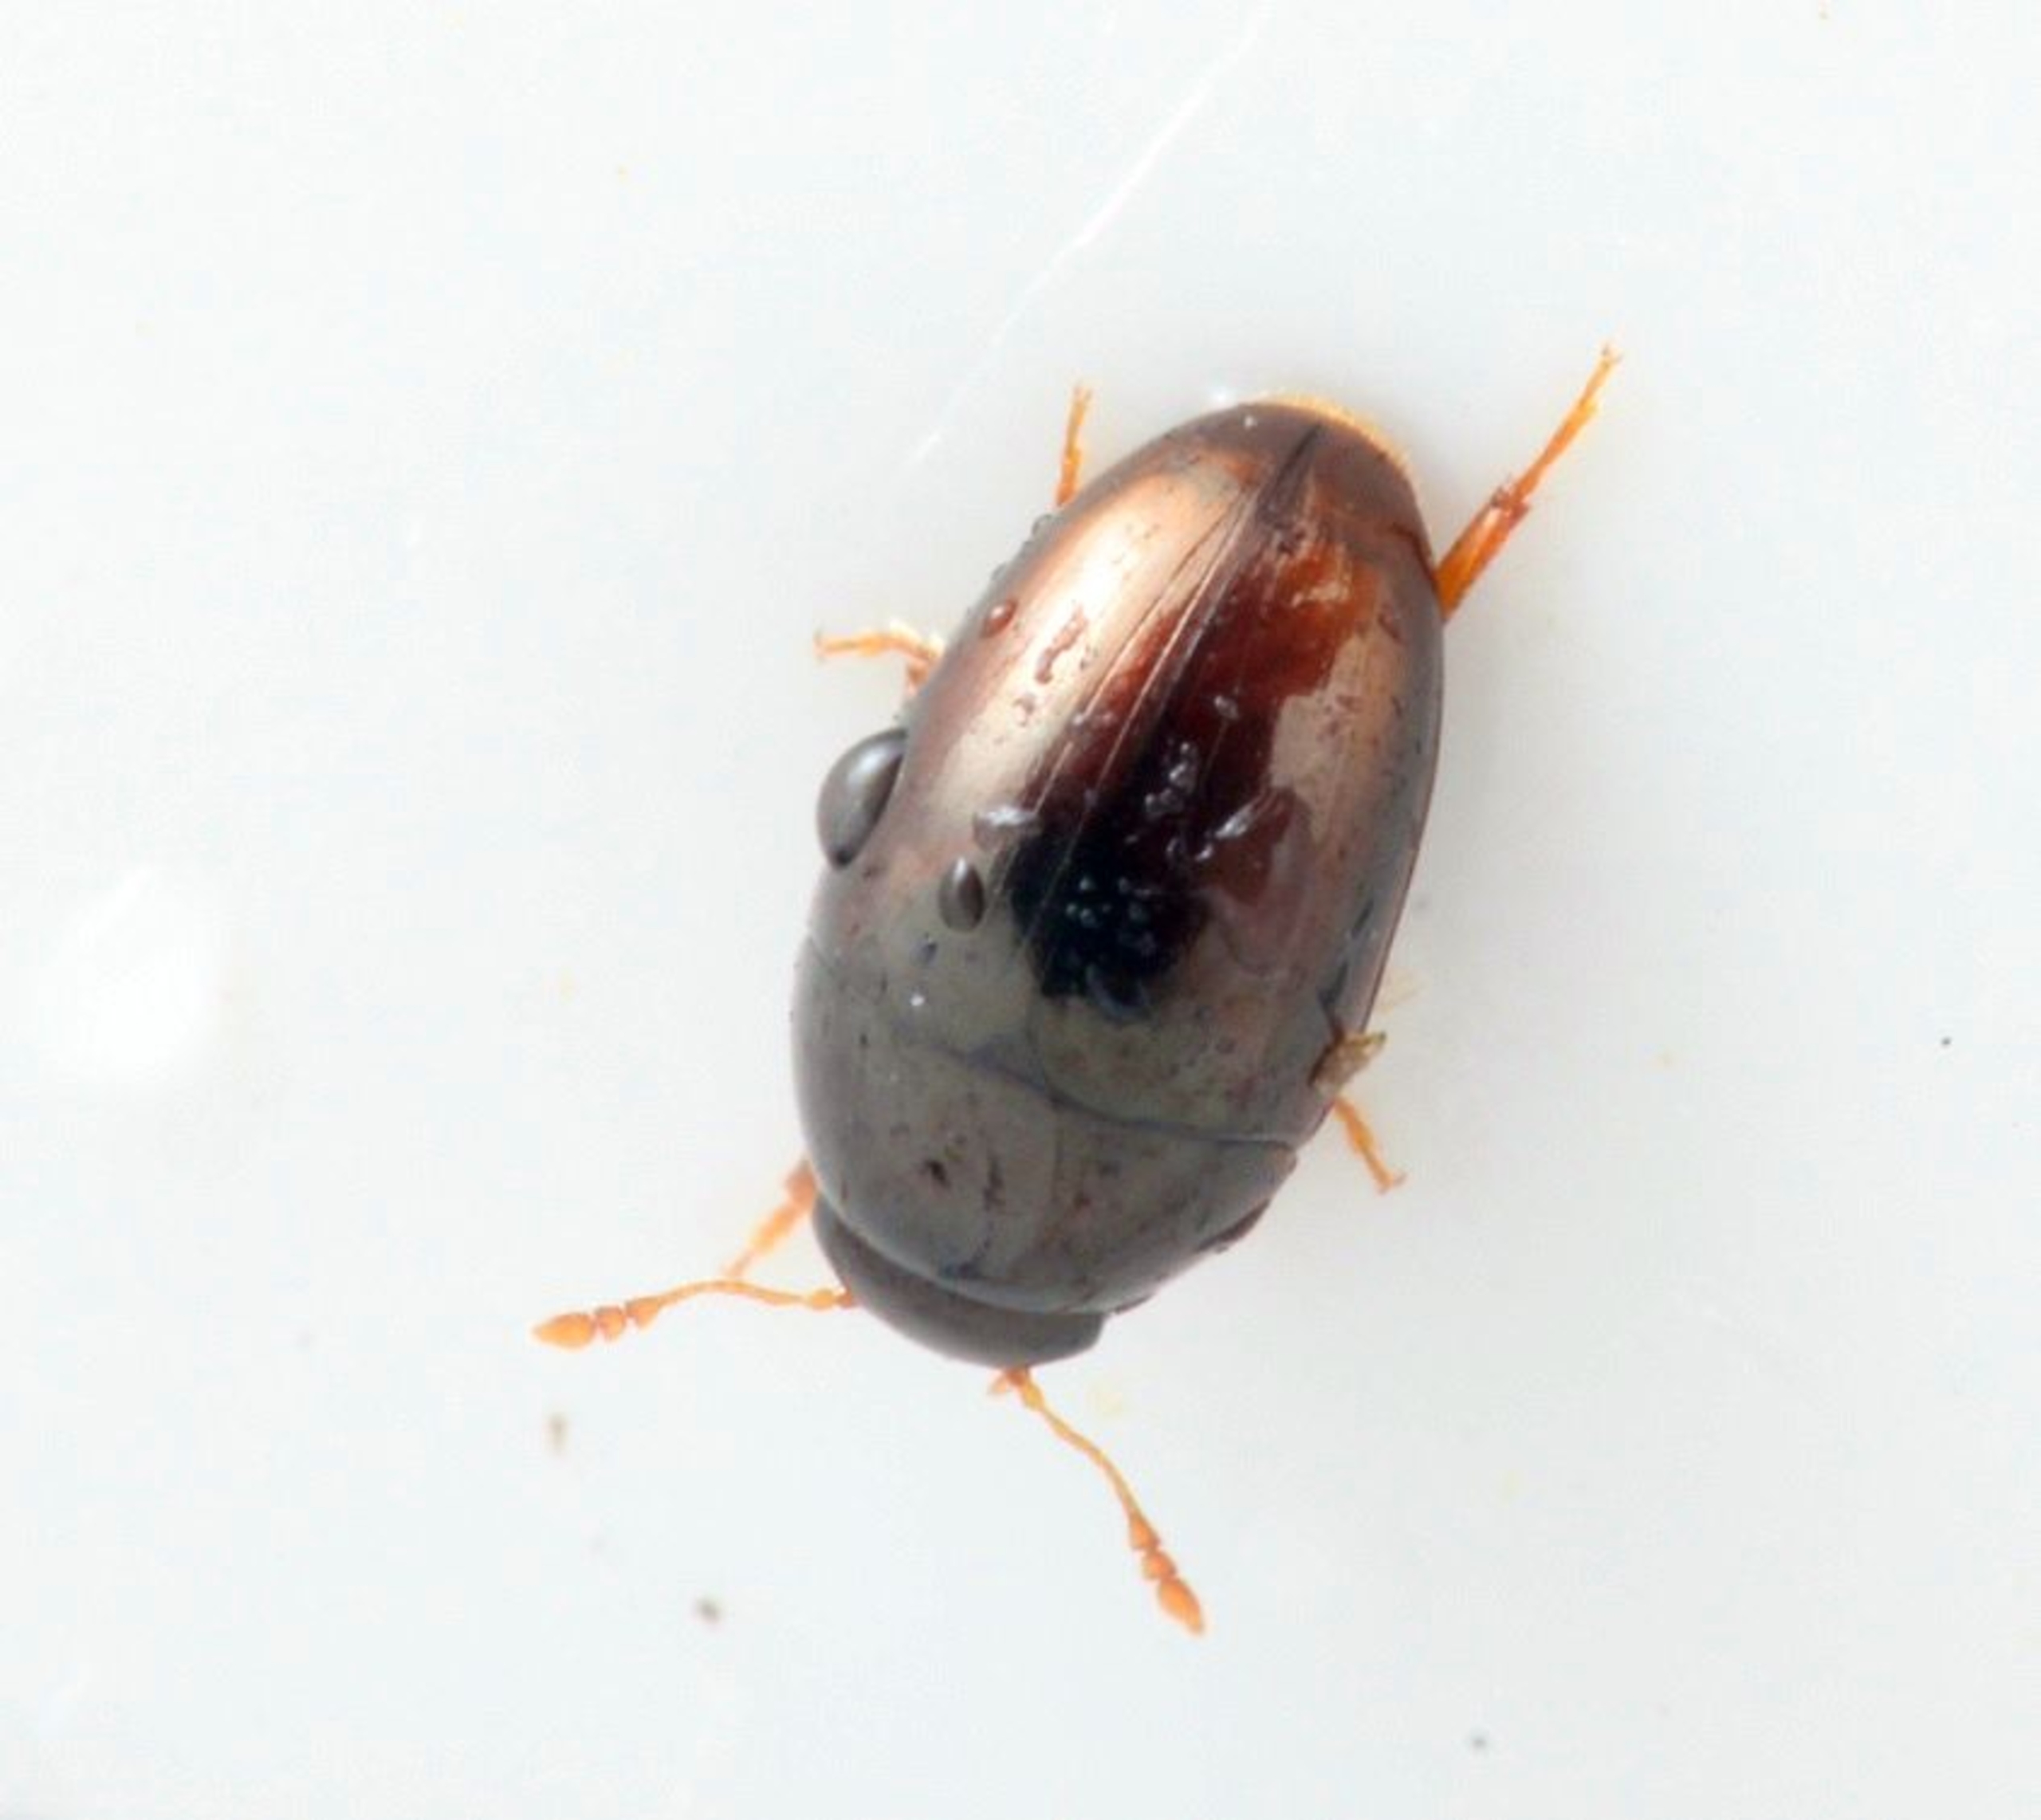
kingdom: Animalia
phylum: Arthropoda
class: Insecta
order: Coleoptera
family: Phalacridae
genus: Olibrus
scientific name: Olibrus affinis
